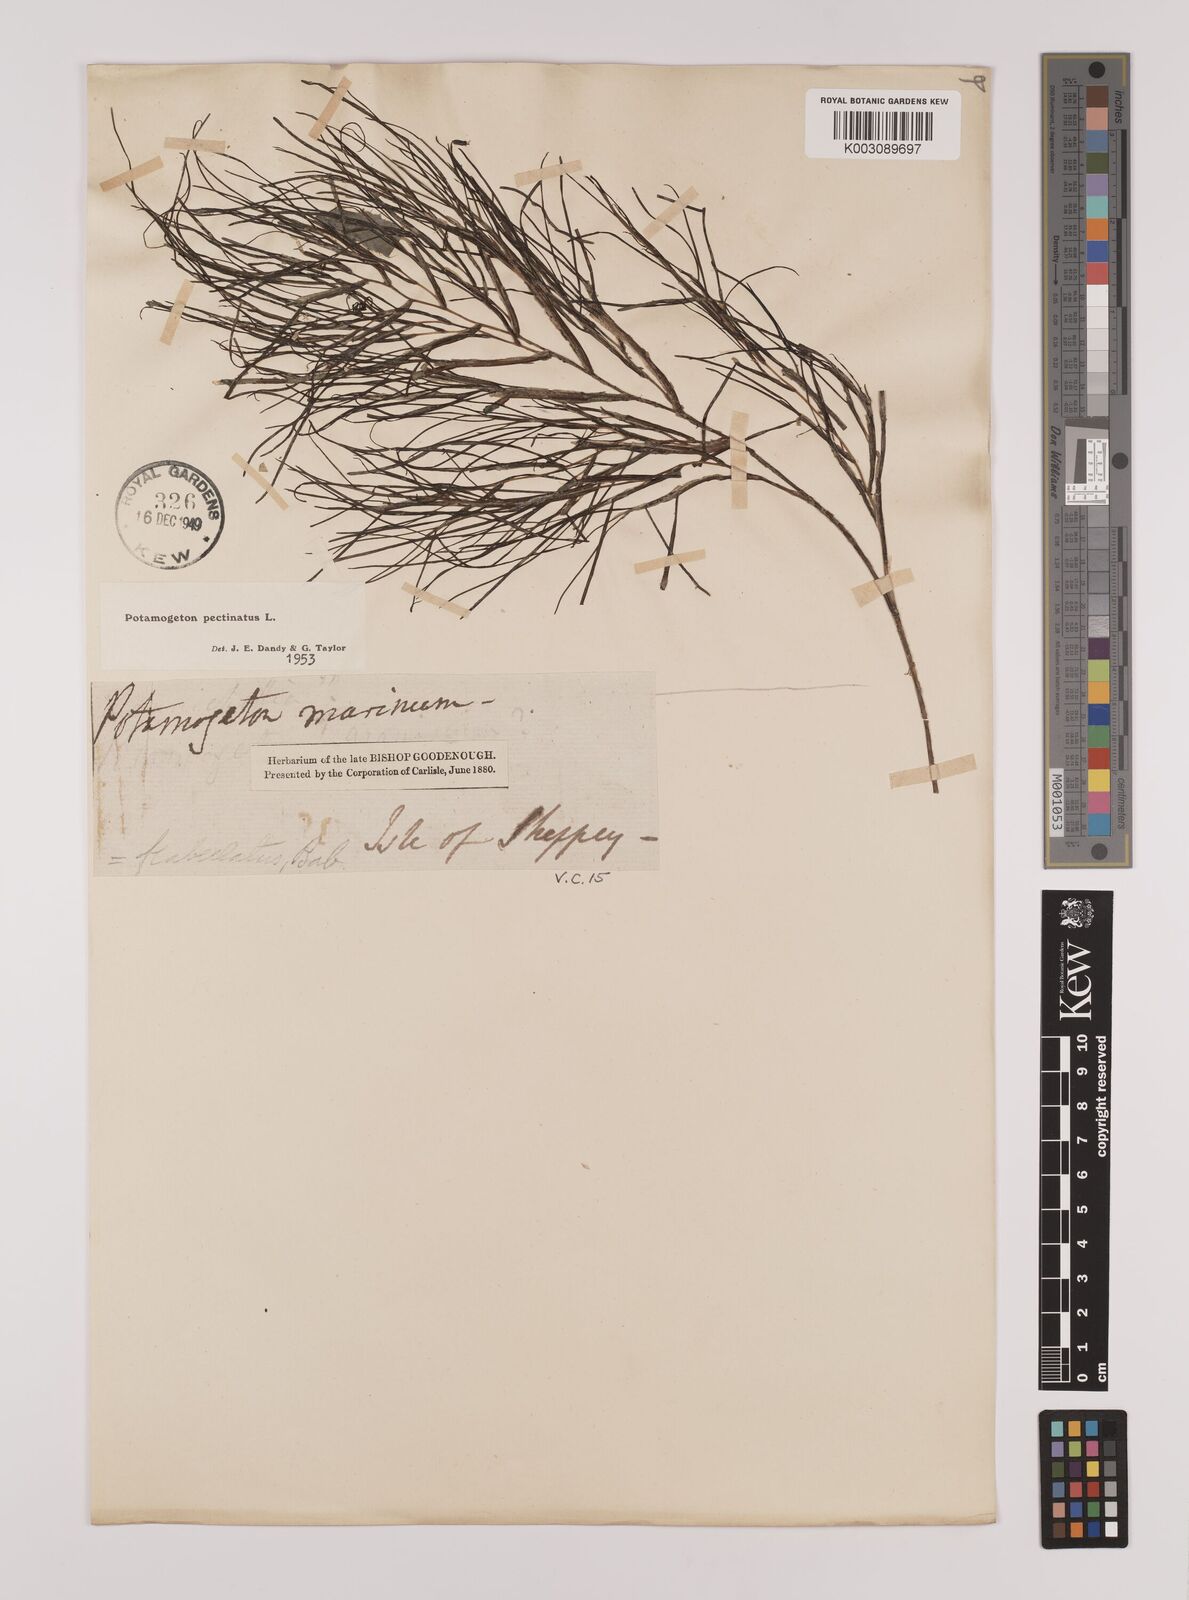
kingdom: Plantae
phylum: Tracheophyta
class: Liliopsida
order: Alismatales
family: Potamogetonaceae
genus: Stuckenia
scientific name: Stuckenia pectinata
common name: Sago pondweed
